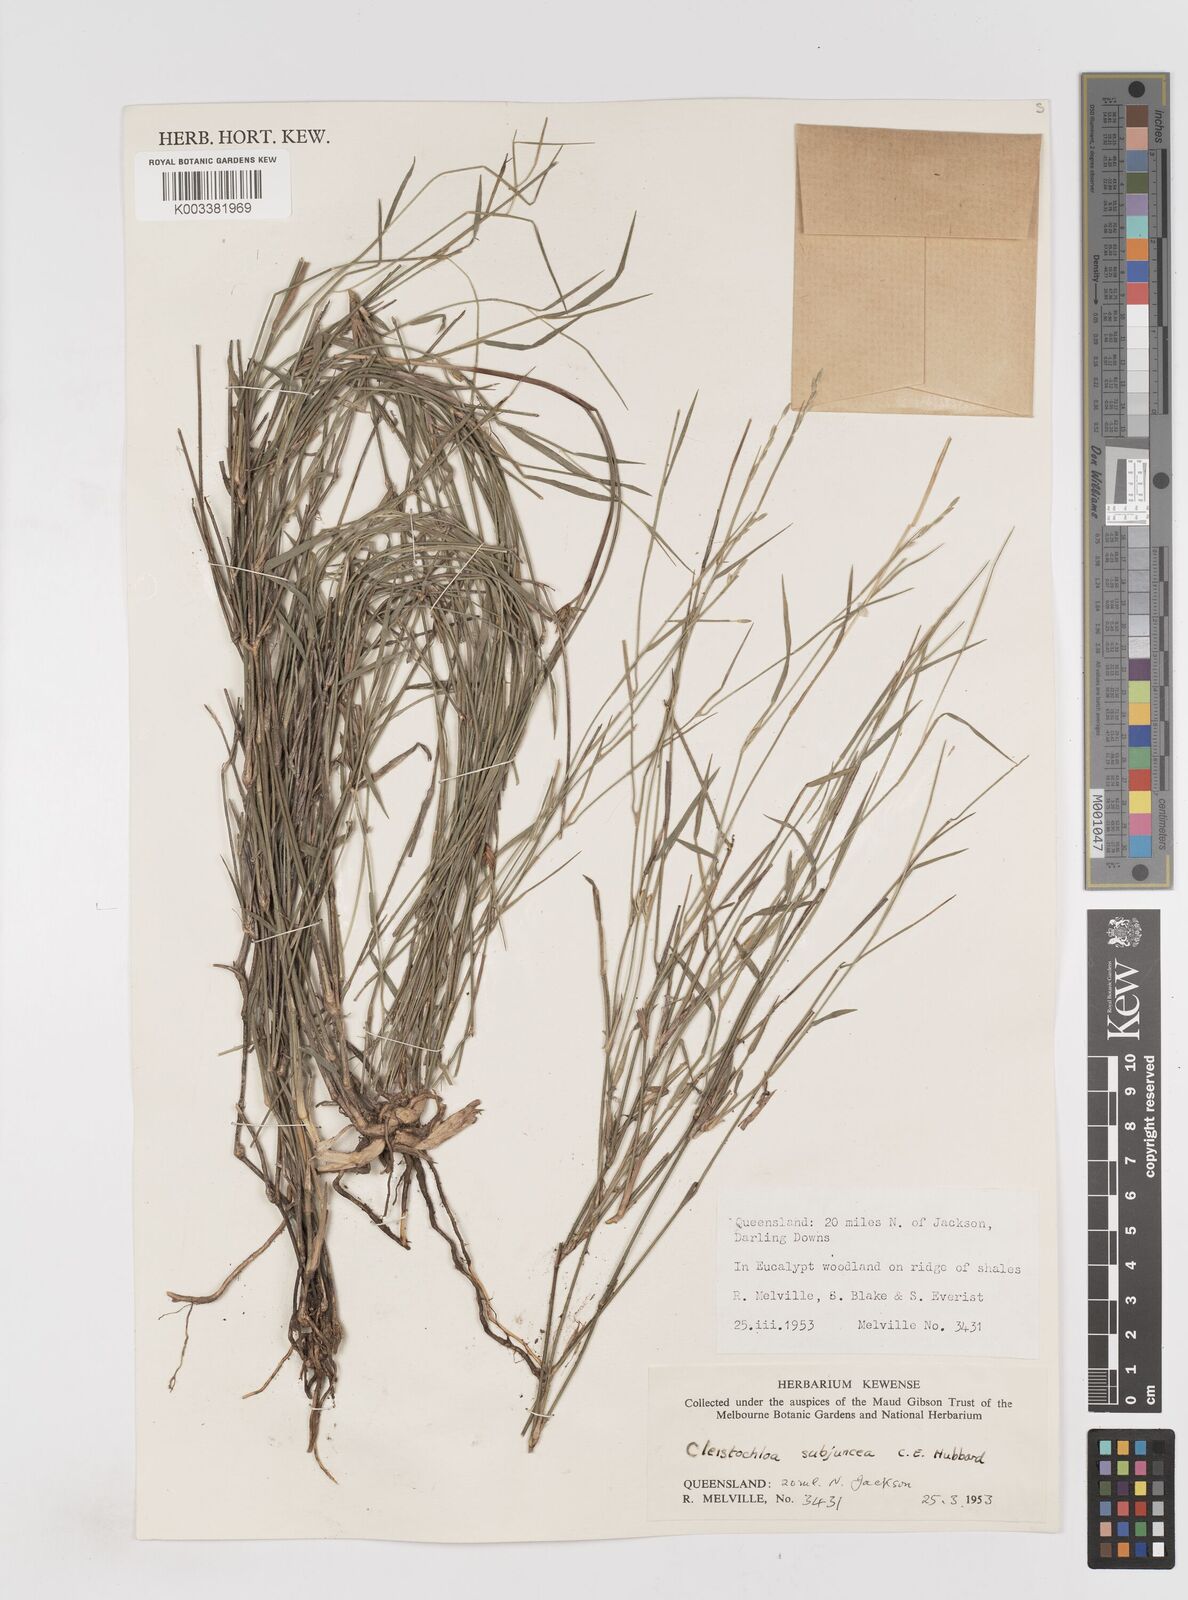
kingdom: Plantae
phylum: Tracheophyta
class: Liliopsida
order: Poales
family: Poaceae
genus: Cleistochloa
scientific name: Cleistochloa subjuncea
